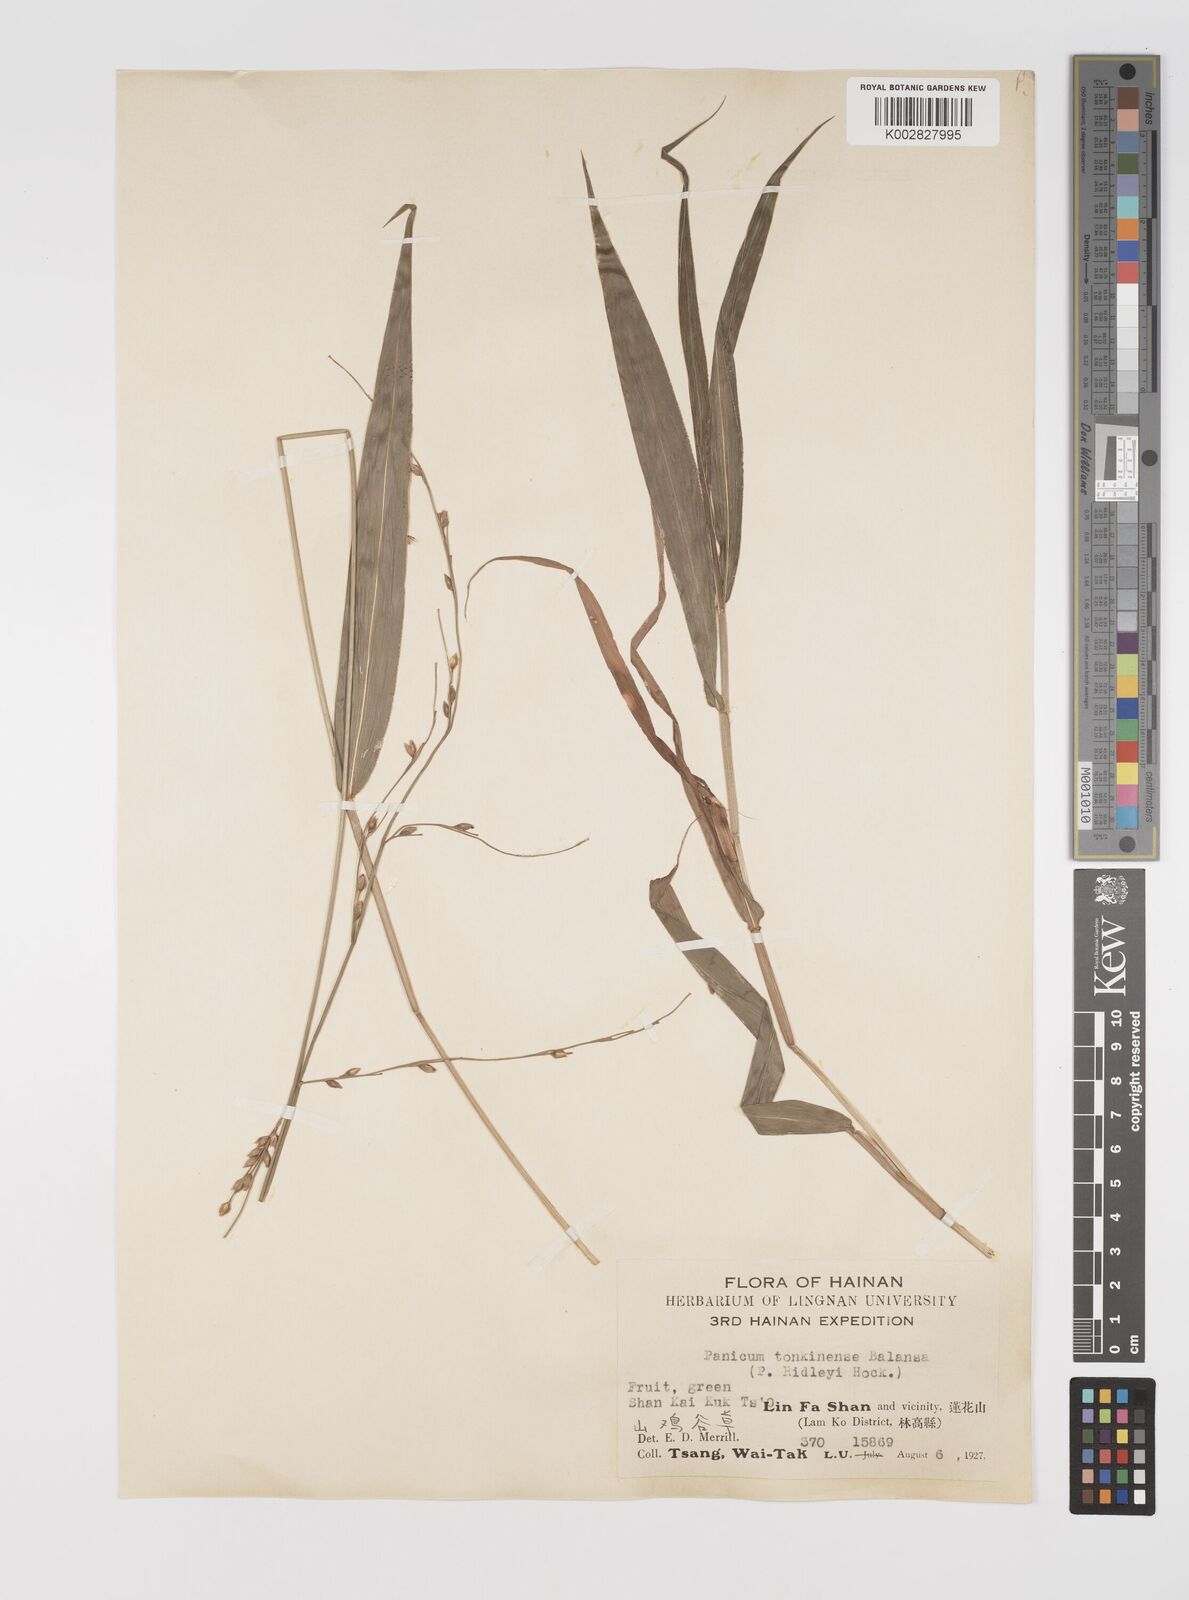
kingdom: Plantae
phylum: Tracheophyta
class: Liliopsida
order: Poales
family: Poaceae
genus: Acroceras
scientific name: Acroceras tonkinense
